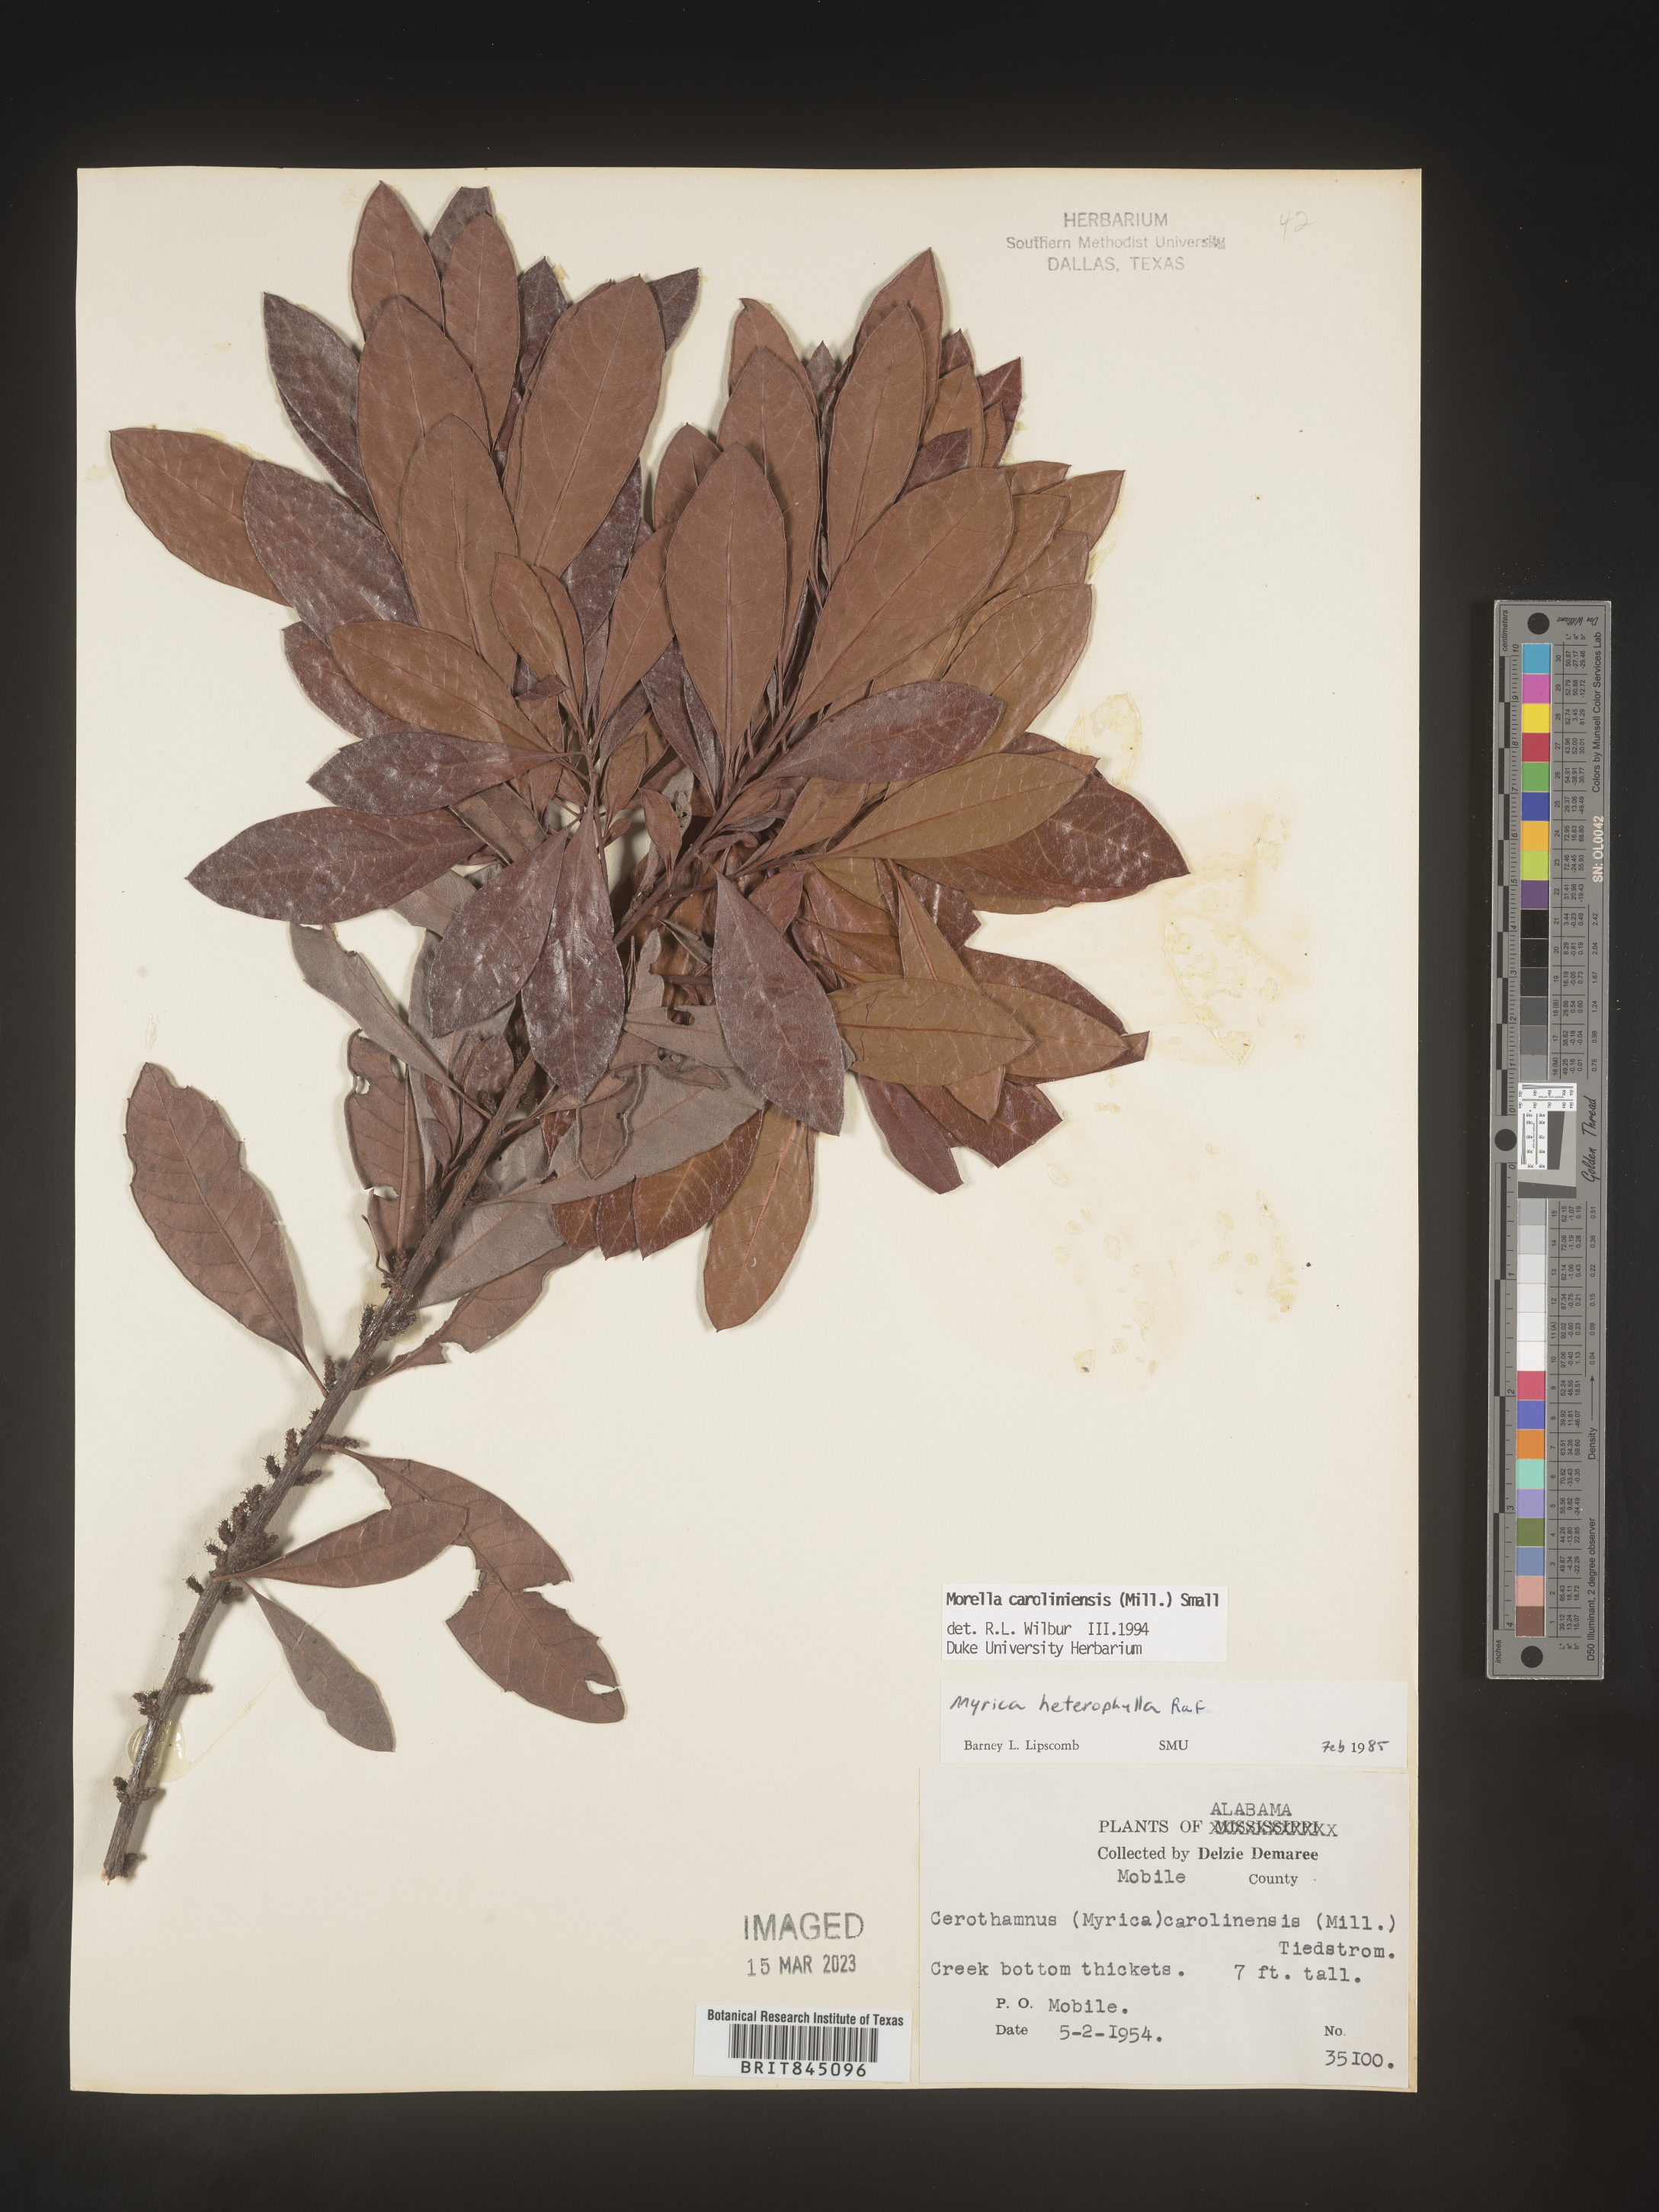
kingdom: Plantae
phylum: Tracheophyta
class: Magnoliopsida
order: Fagales
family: Myricaceae
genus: Morella
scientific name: Morella caroliniensis
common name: Evergreen bayberry
